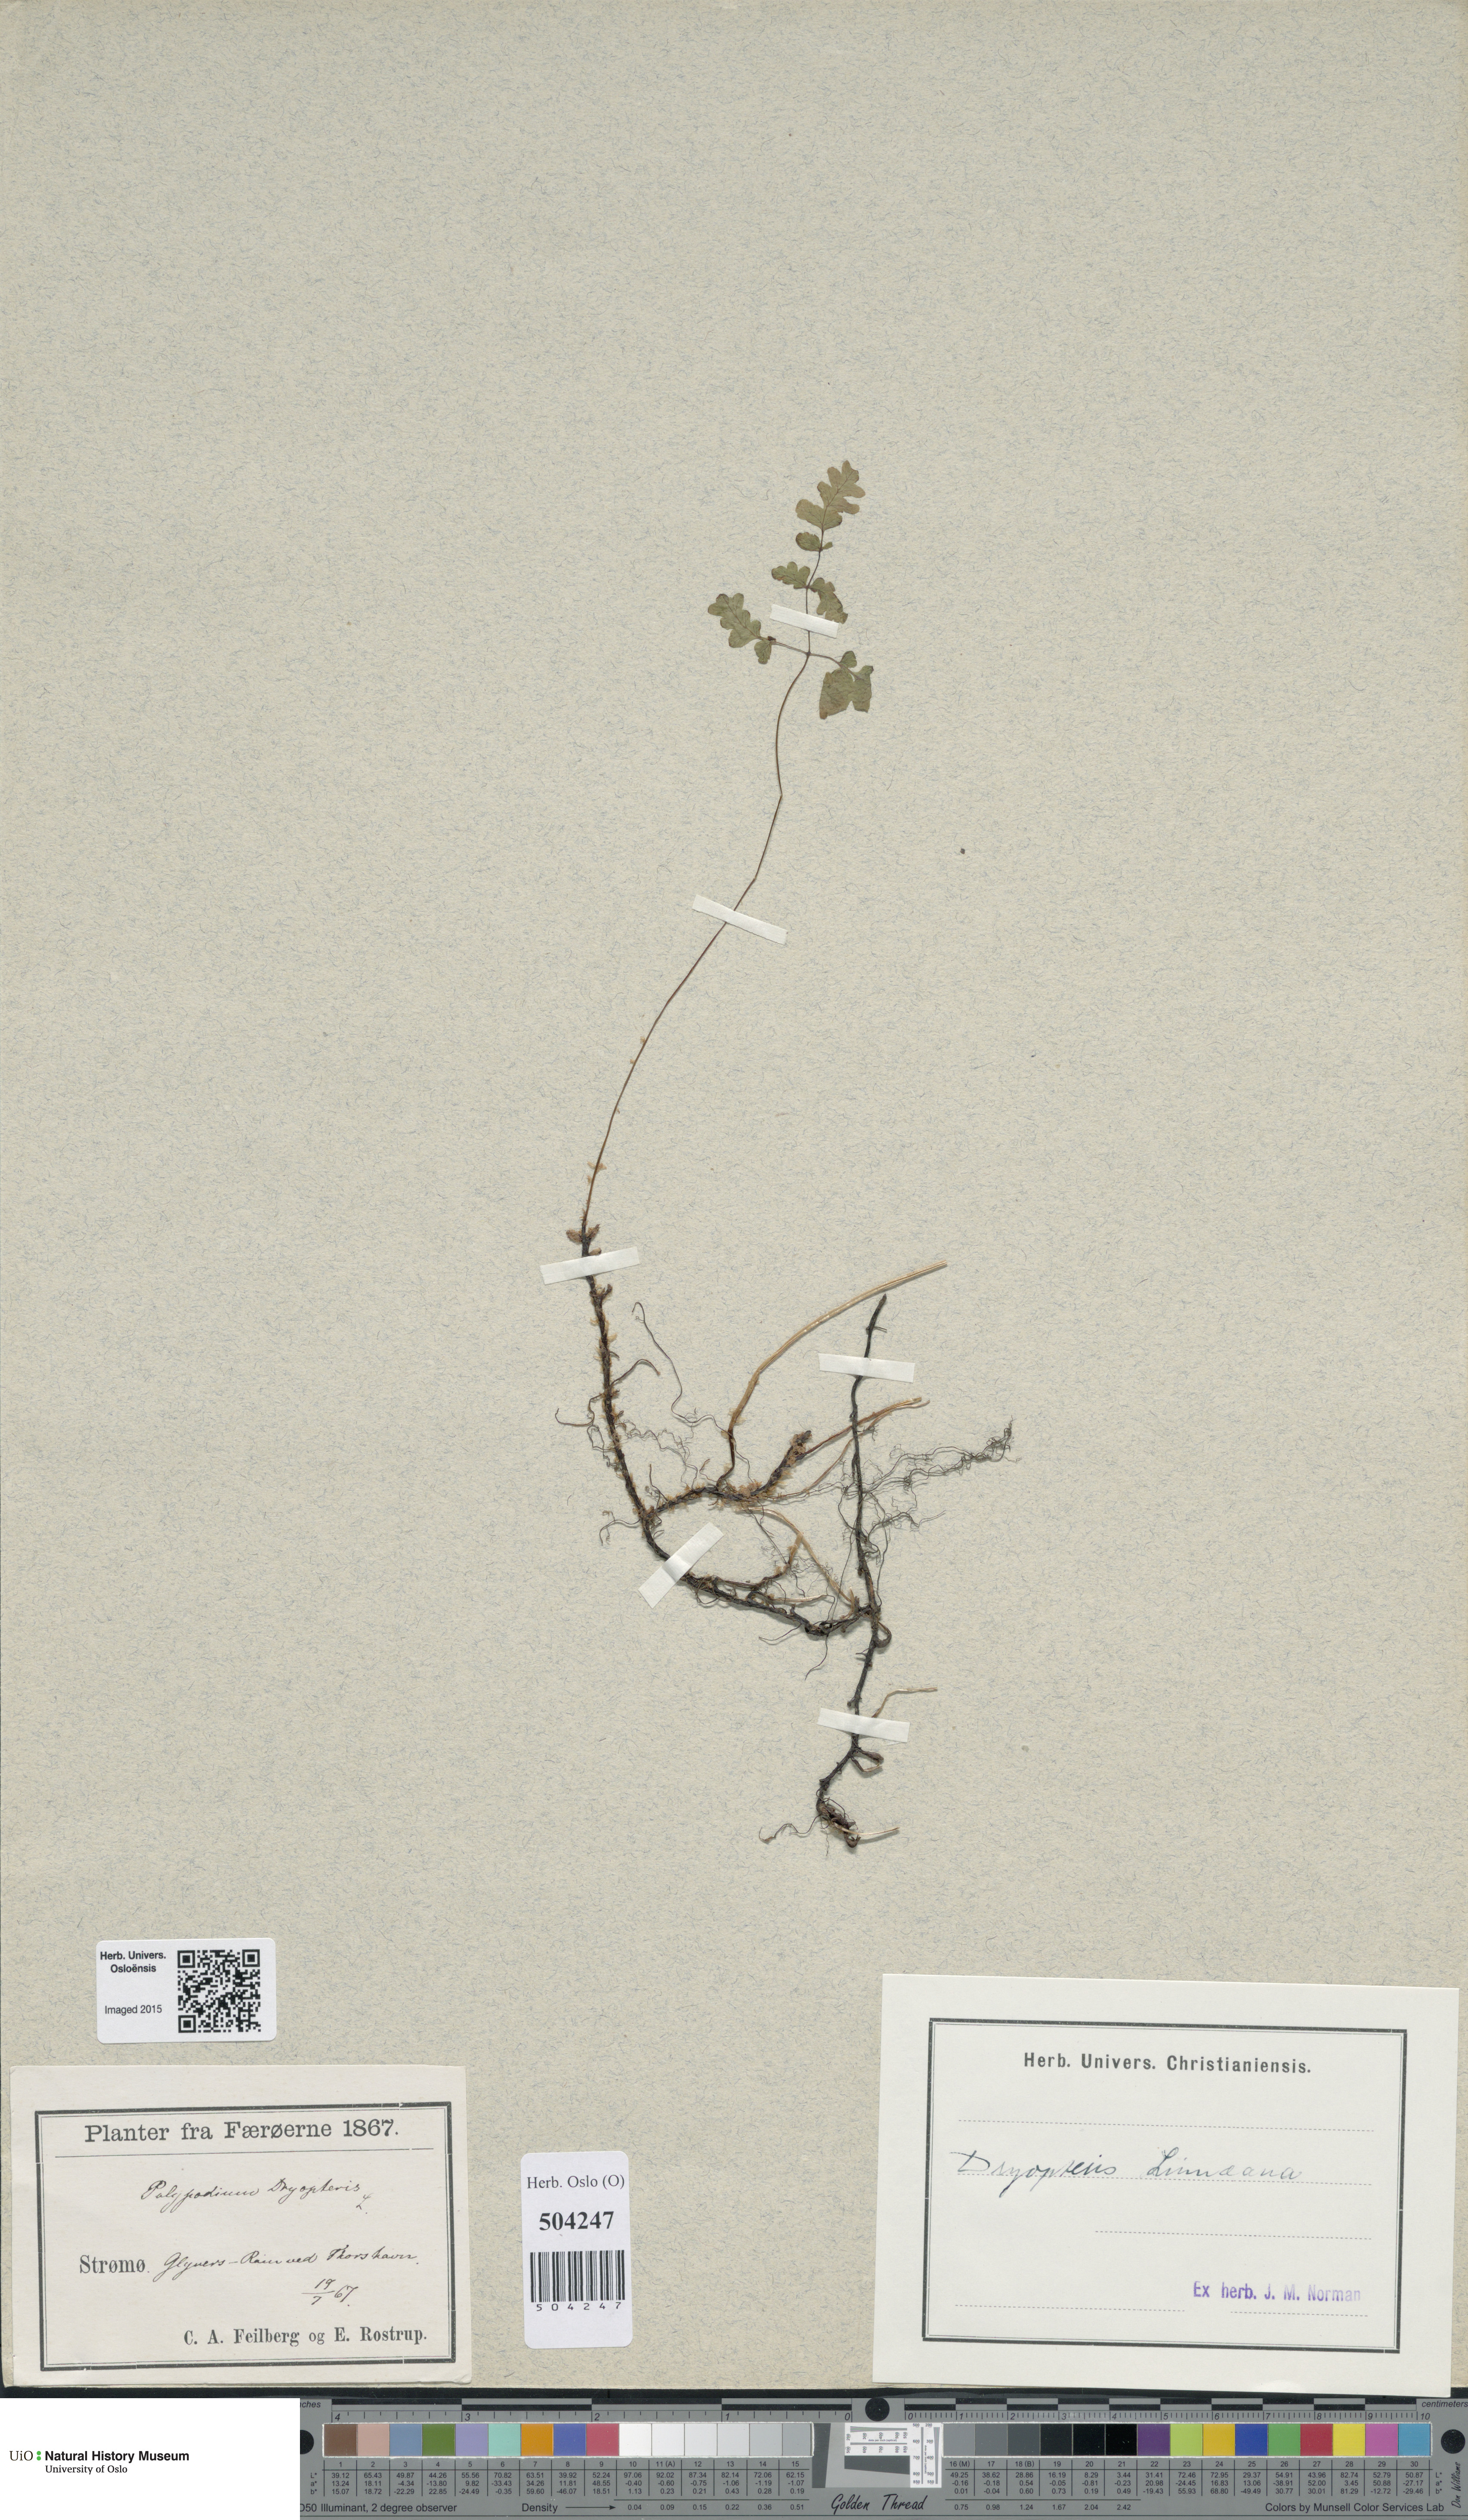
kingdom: Plantae
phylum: Tracheophyta
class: Polypodiopsida
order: Polypodiales
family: Cystopteridaceae
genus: Gymnocarpium
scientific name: Gymnocarpium dryopteris
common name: Oak fern
